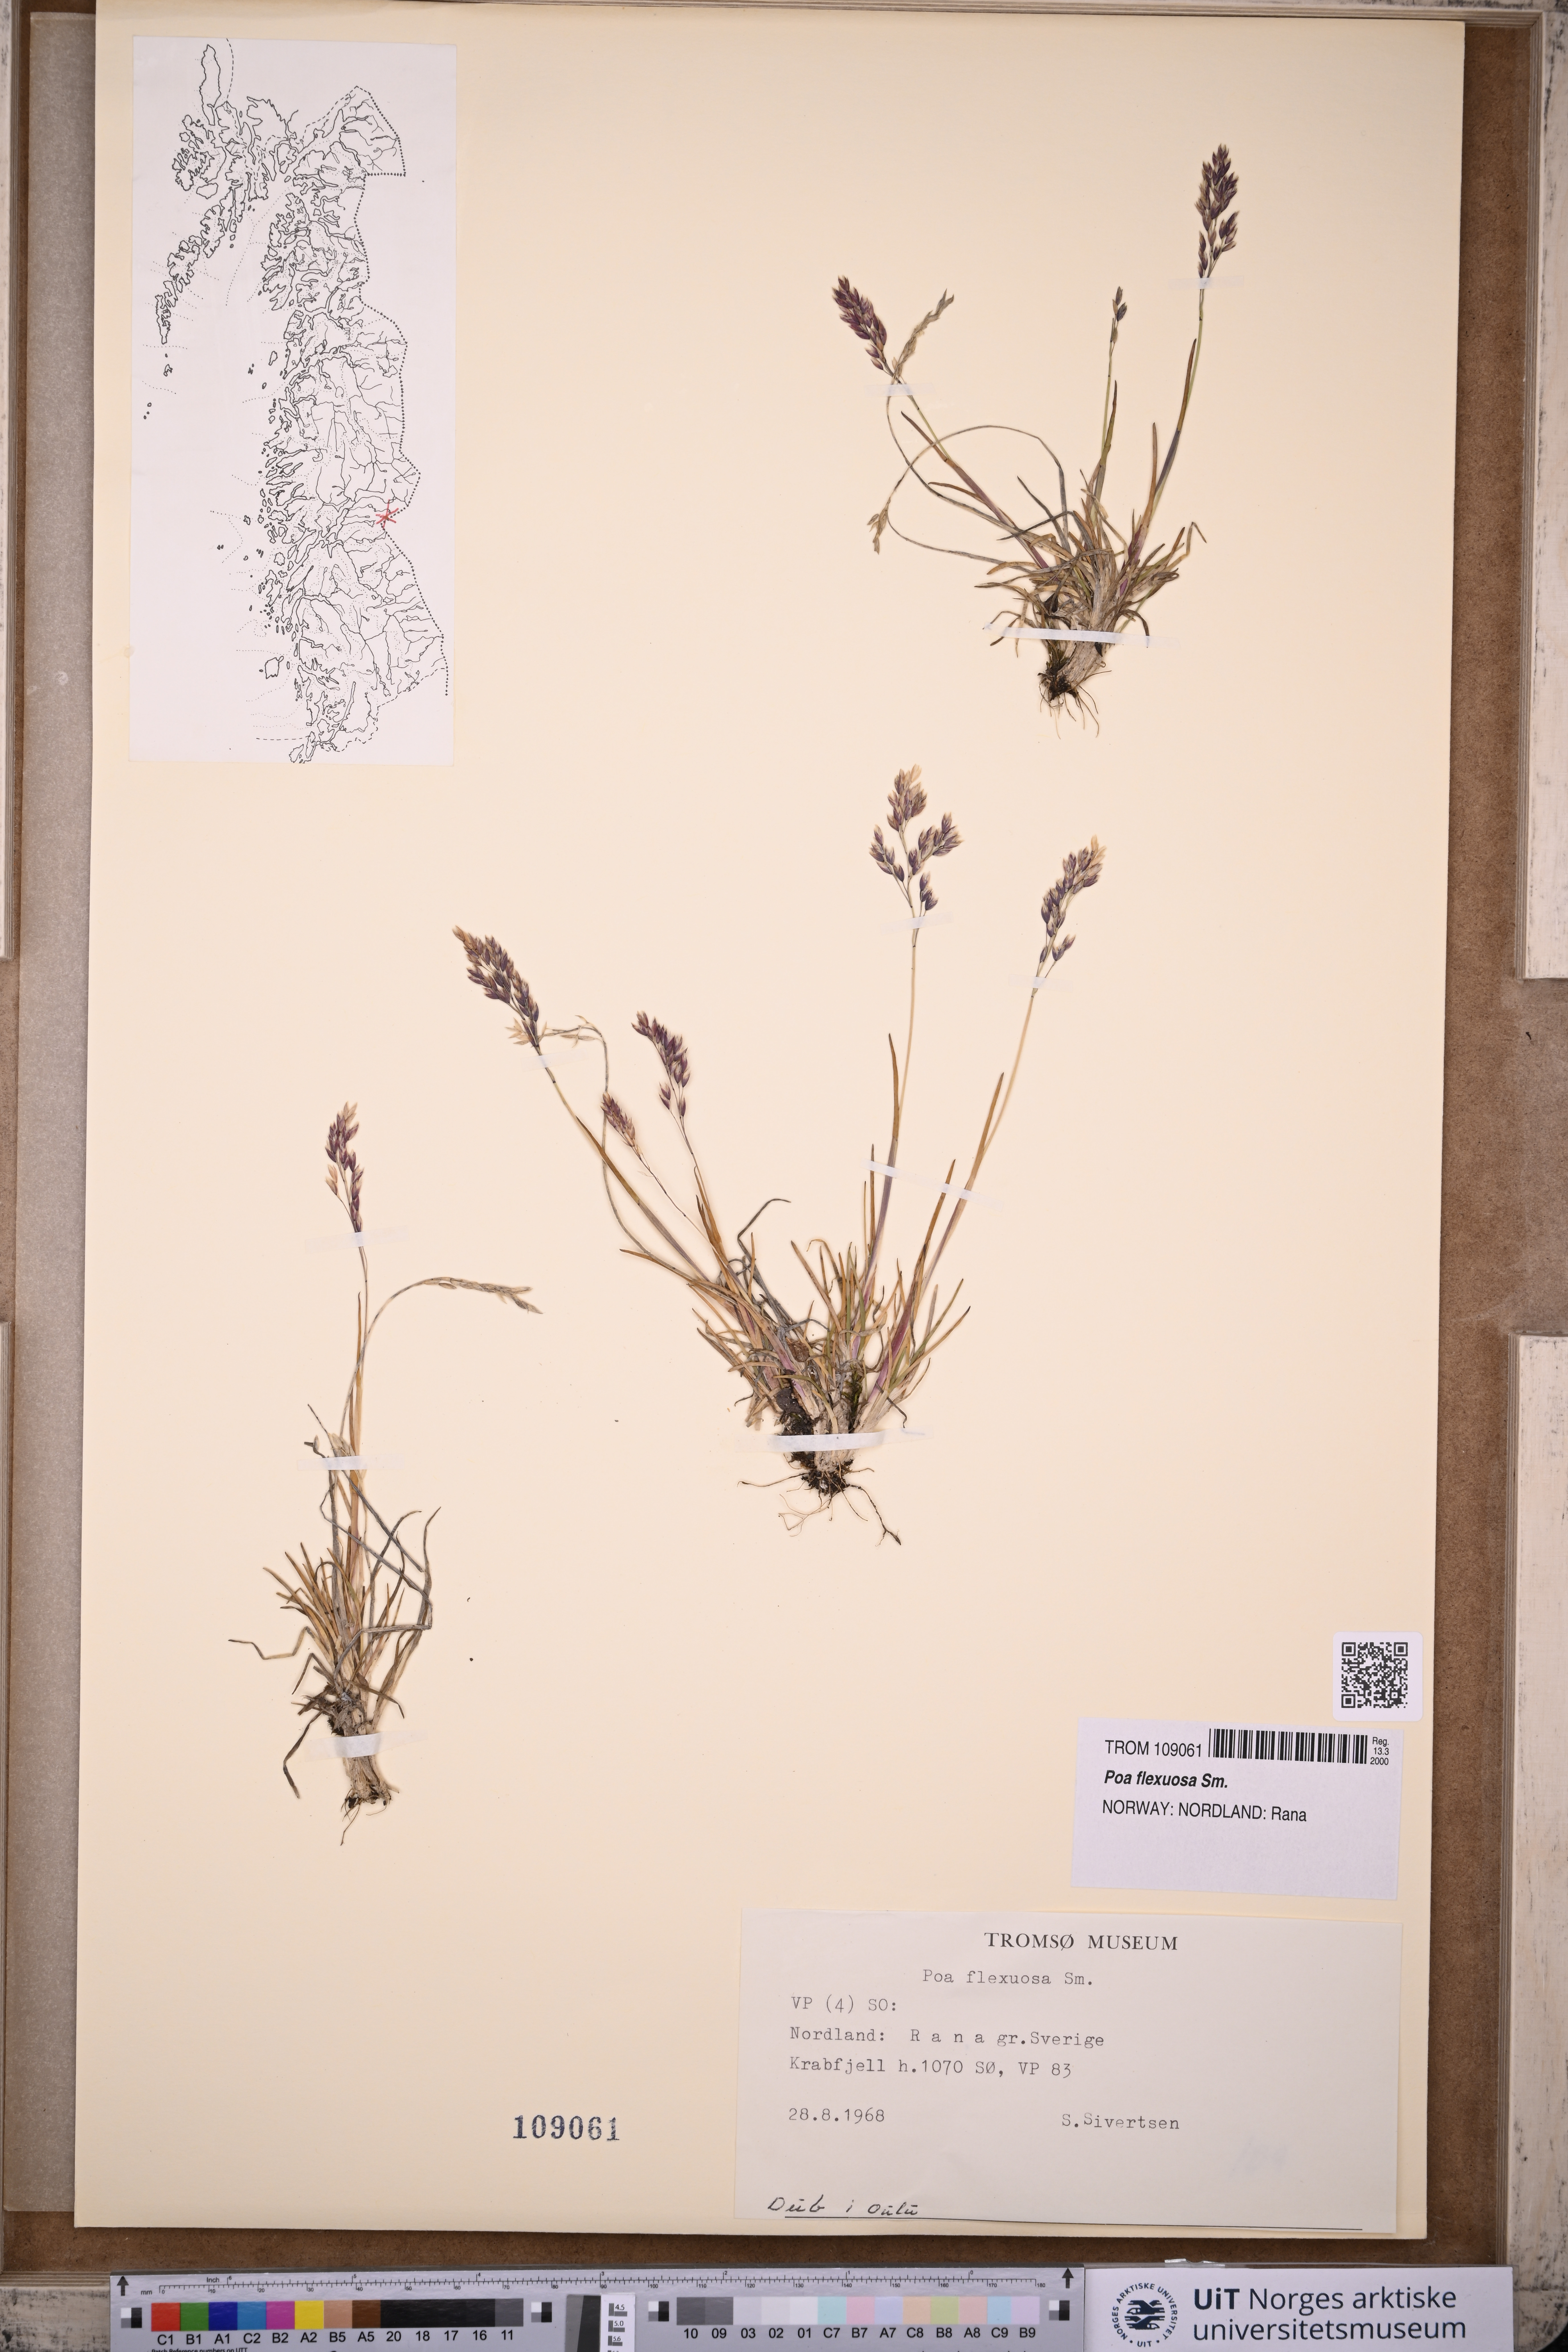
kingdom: Plantae
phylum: Tracheophyta
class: Liliopsida
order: Poales
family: Poaceae
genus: Poa
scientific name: Poa flexuosa
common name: Wavy meadow-grass
